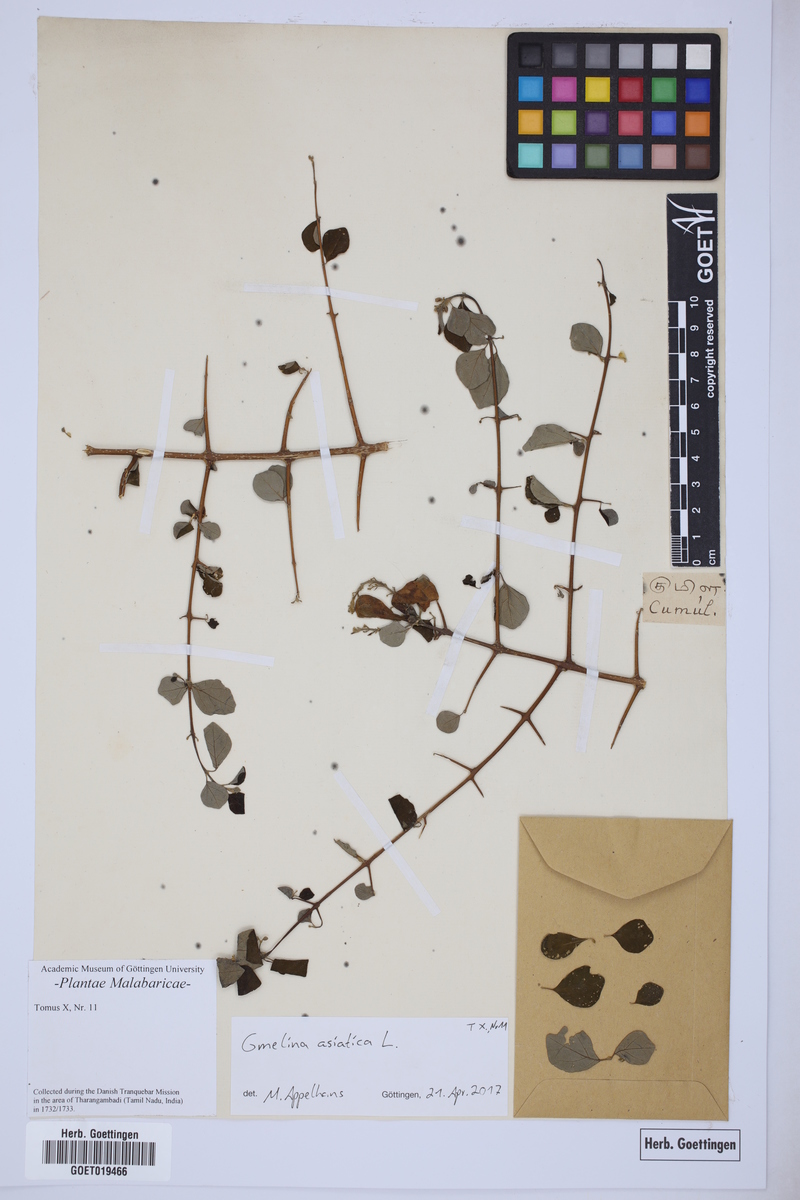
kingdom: Plantae
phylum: Tracheophyta
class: Magnoliopsida
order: Lamiales
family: Lamiaceae
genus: Gmelina
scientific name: Gmelina asiatica
